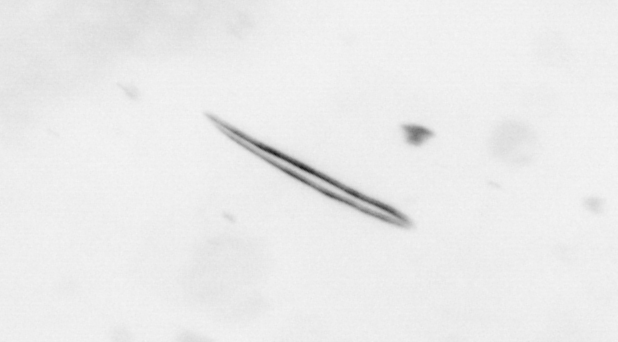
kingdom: Chromista
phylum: Ochrophyta
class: Bacillariophyceae
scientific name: Bacillariophyceae
